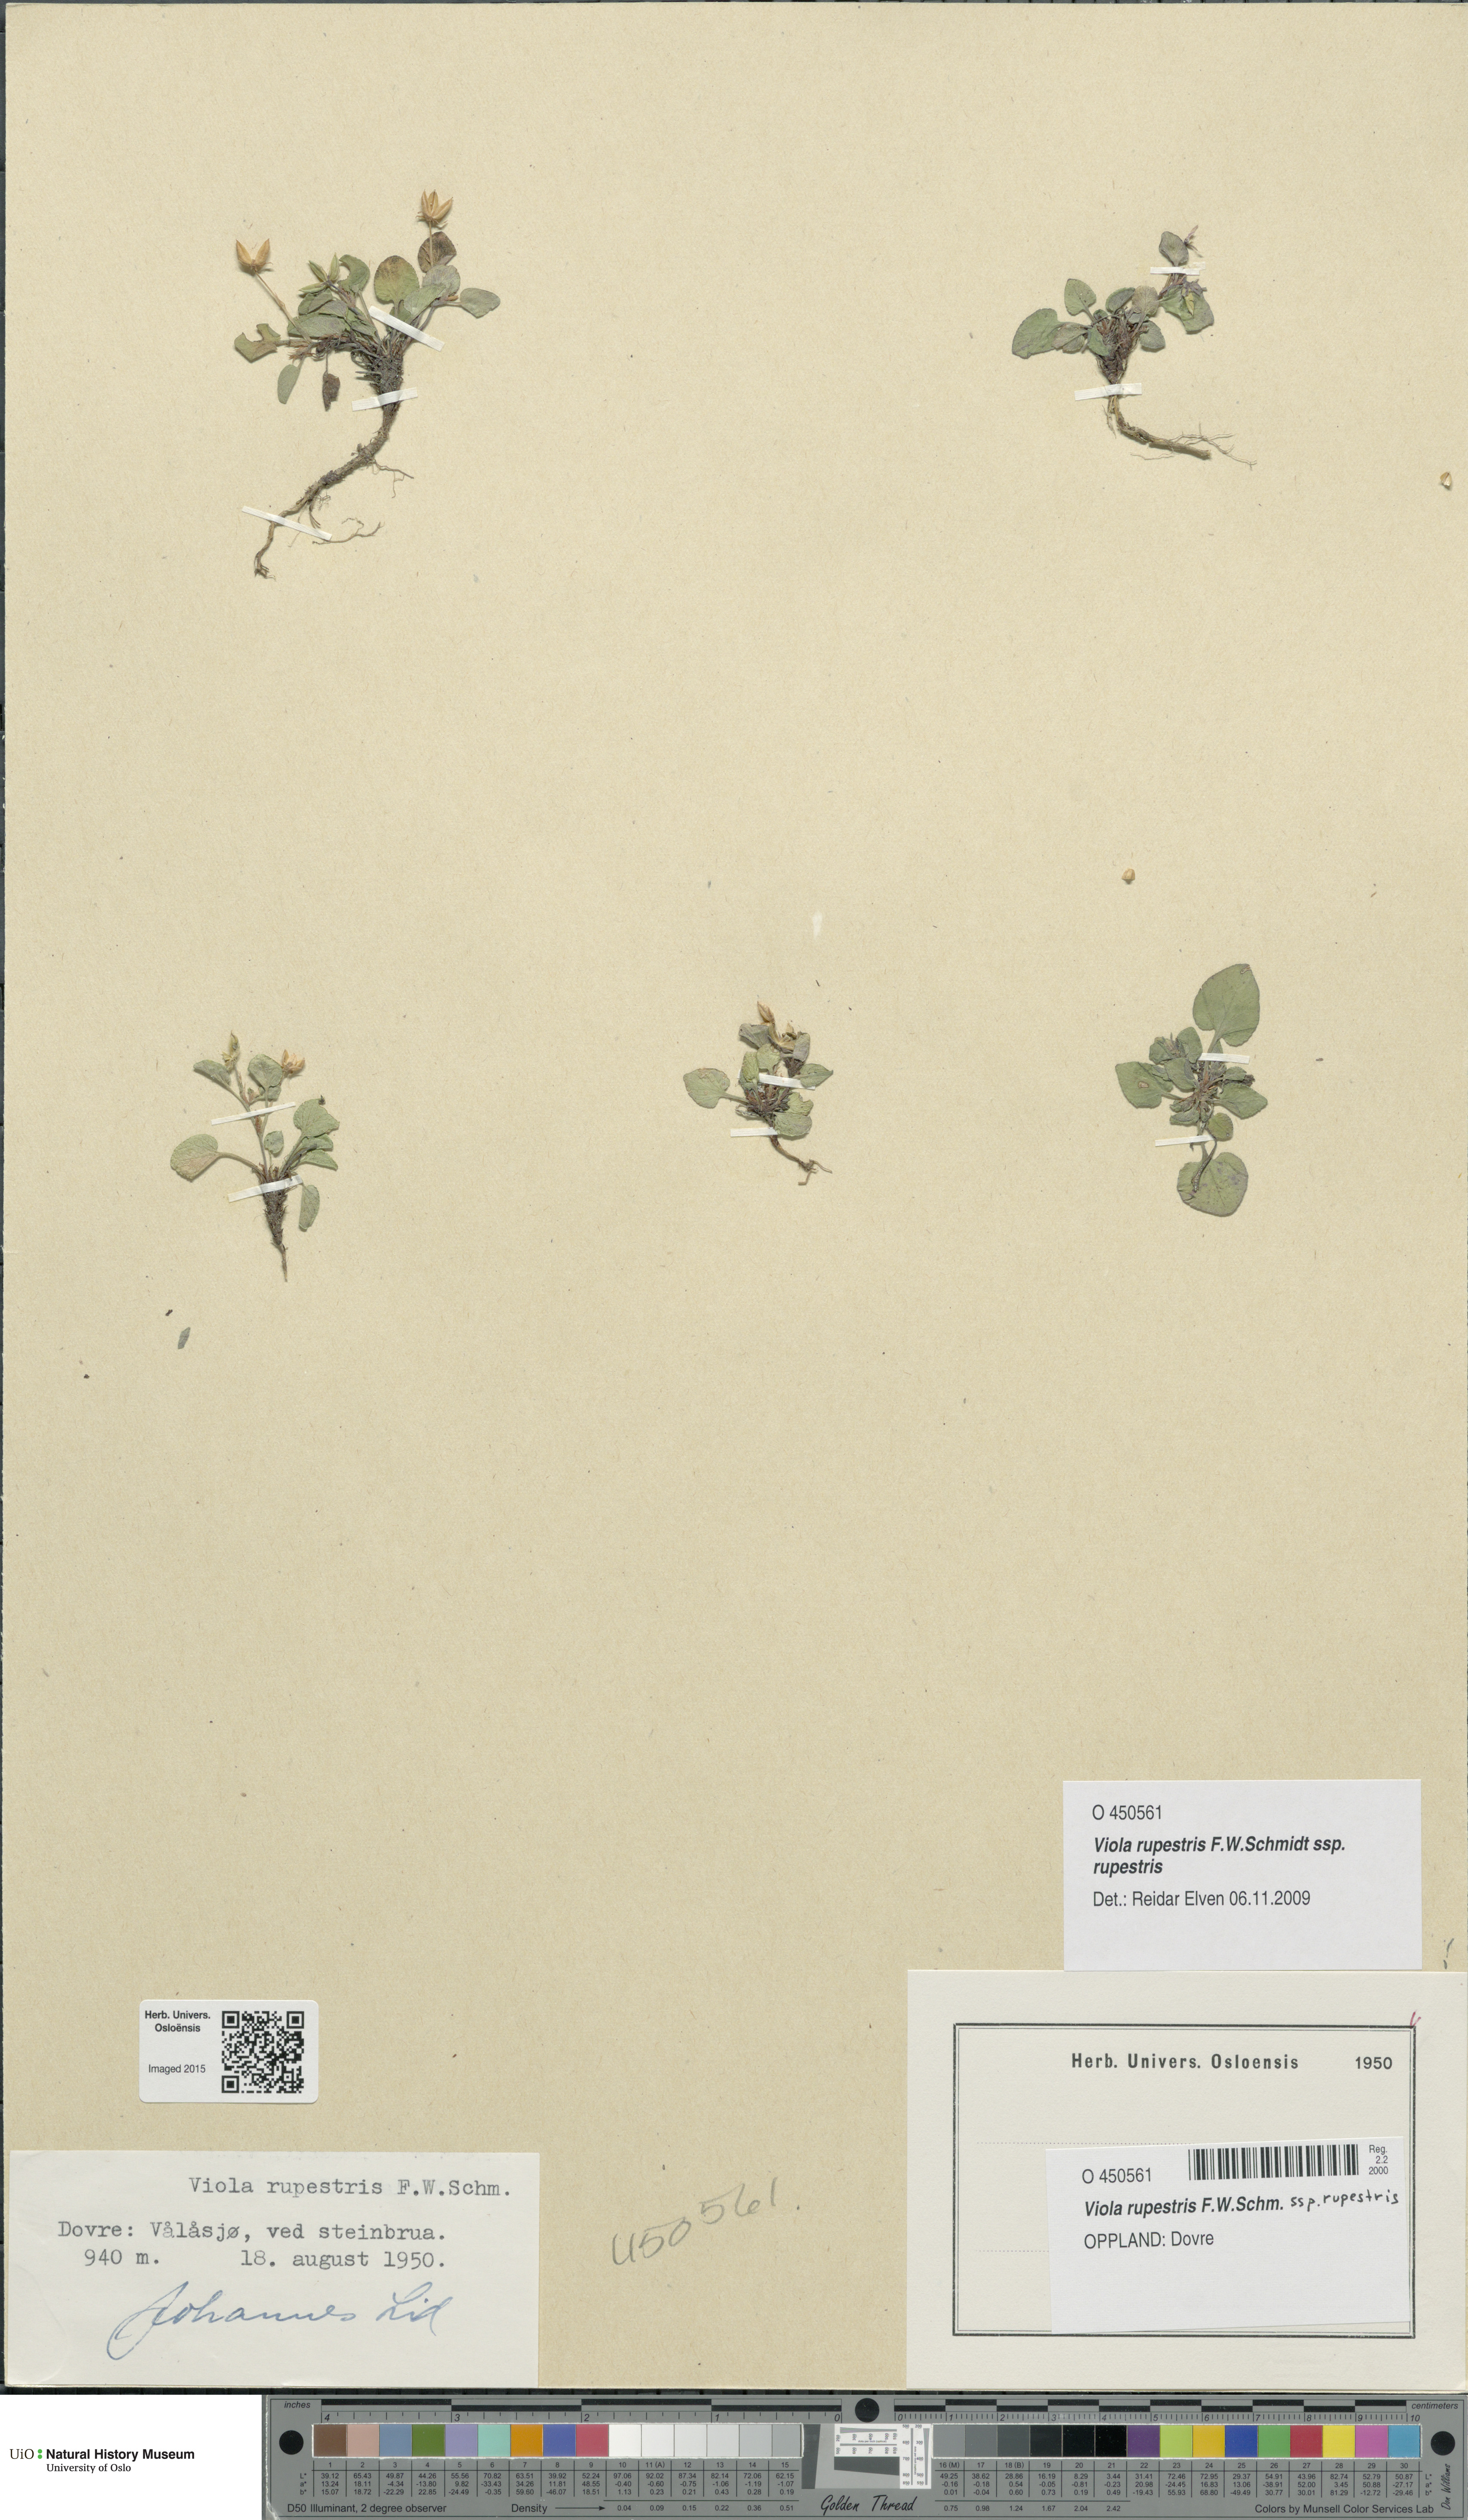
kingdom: Plantae
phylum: Tracheophyta
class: Magnoliopsida
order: Malpighiales
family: Violaceae
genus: Viola
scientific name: Viola rupestris
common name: Teesdale violet
